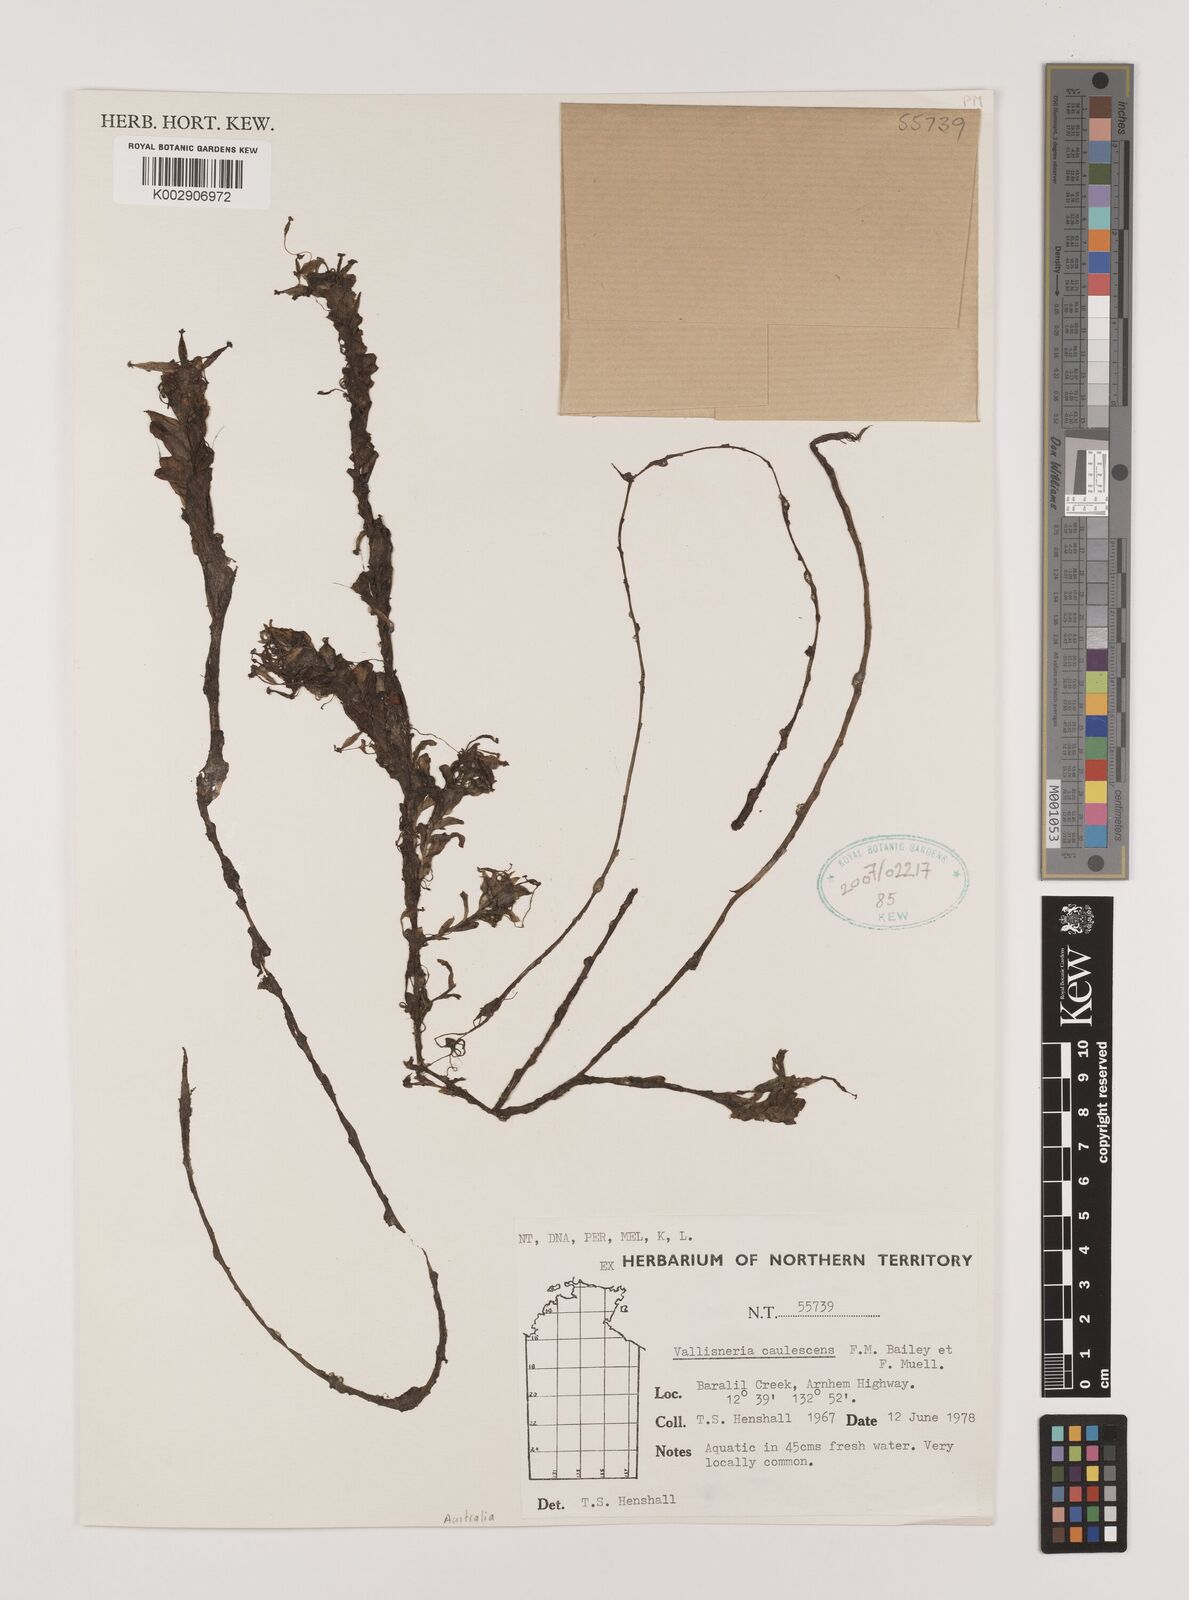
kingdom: Plantae
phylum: Tracheophyta
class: Liliopsida
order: Alismatales
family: Hydrocharitaceae
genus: Vallisneria
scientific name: Vallisneria caulescens
